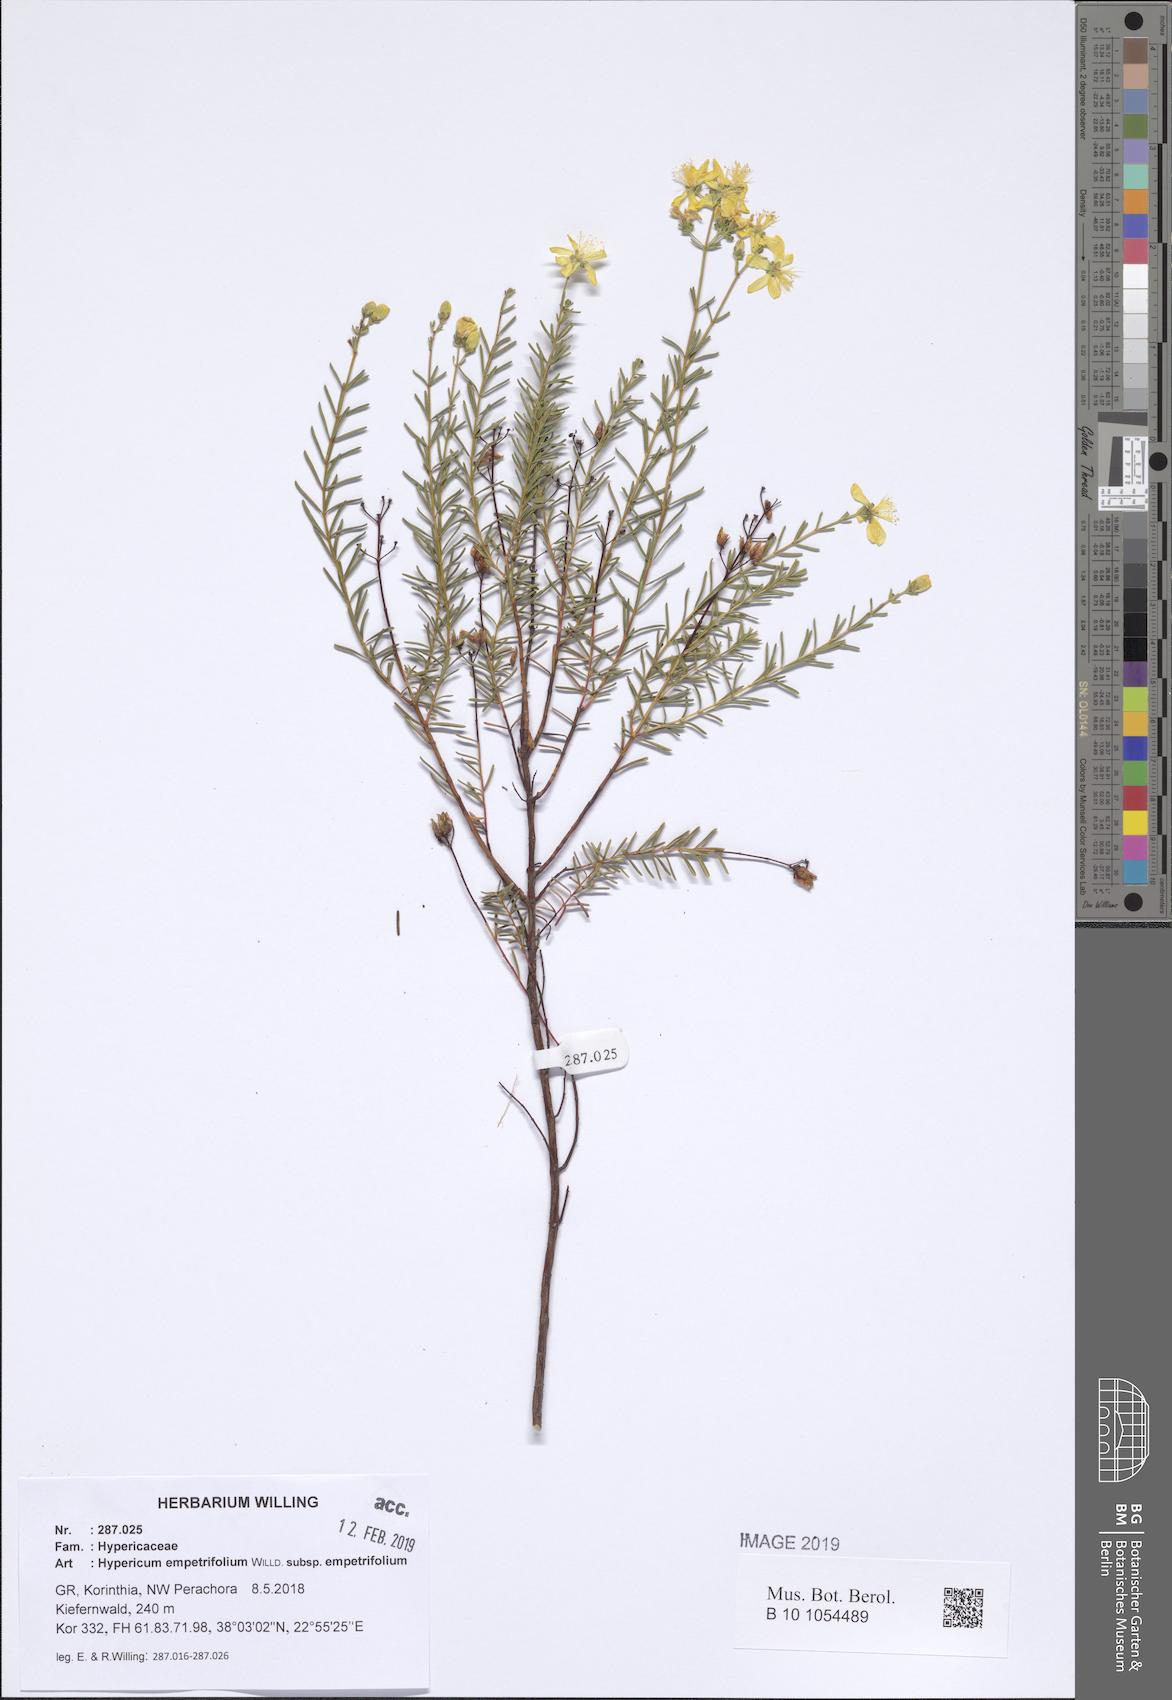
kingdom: Plantae
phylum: Tracheophyta
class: Magnoliopsida
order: Malpighiales
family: Hypericaceae
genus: Hypericum
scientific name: Hypericum empetrifolium
